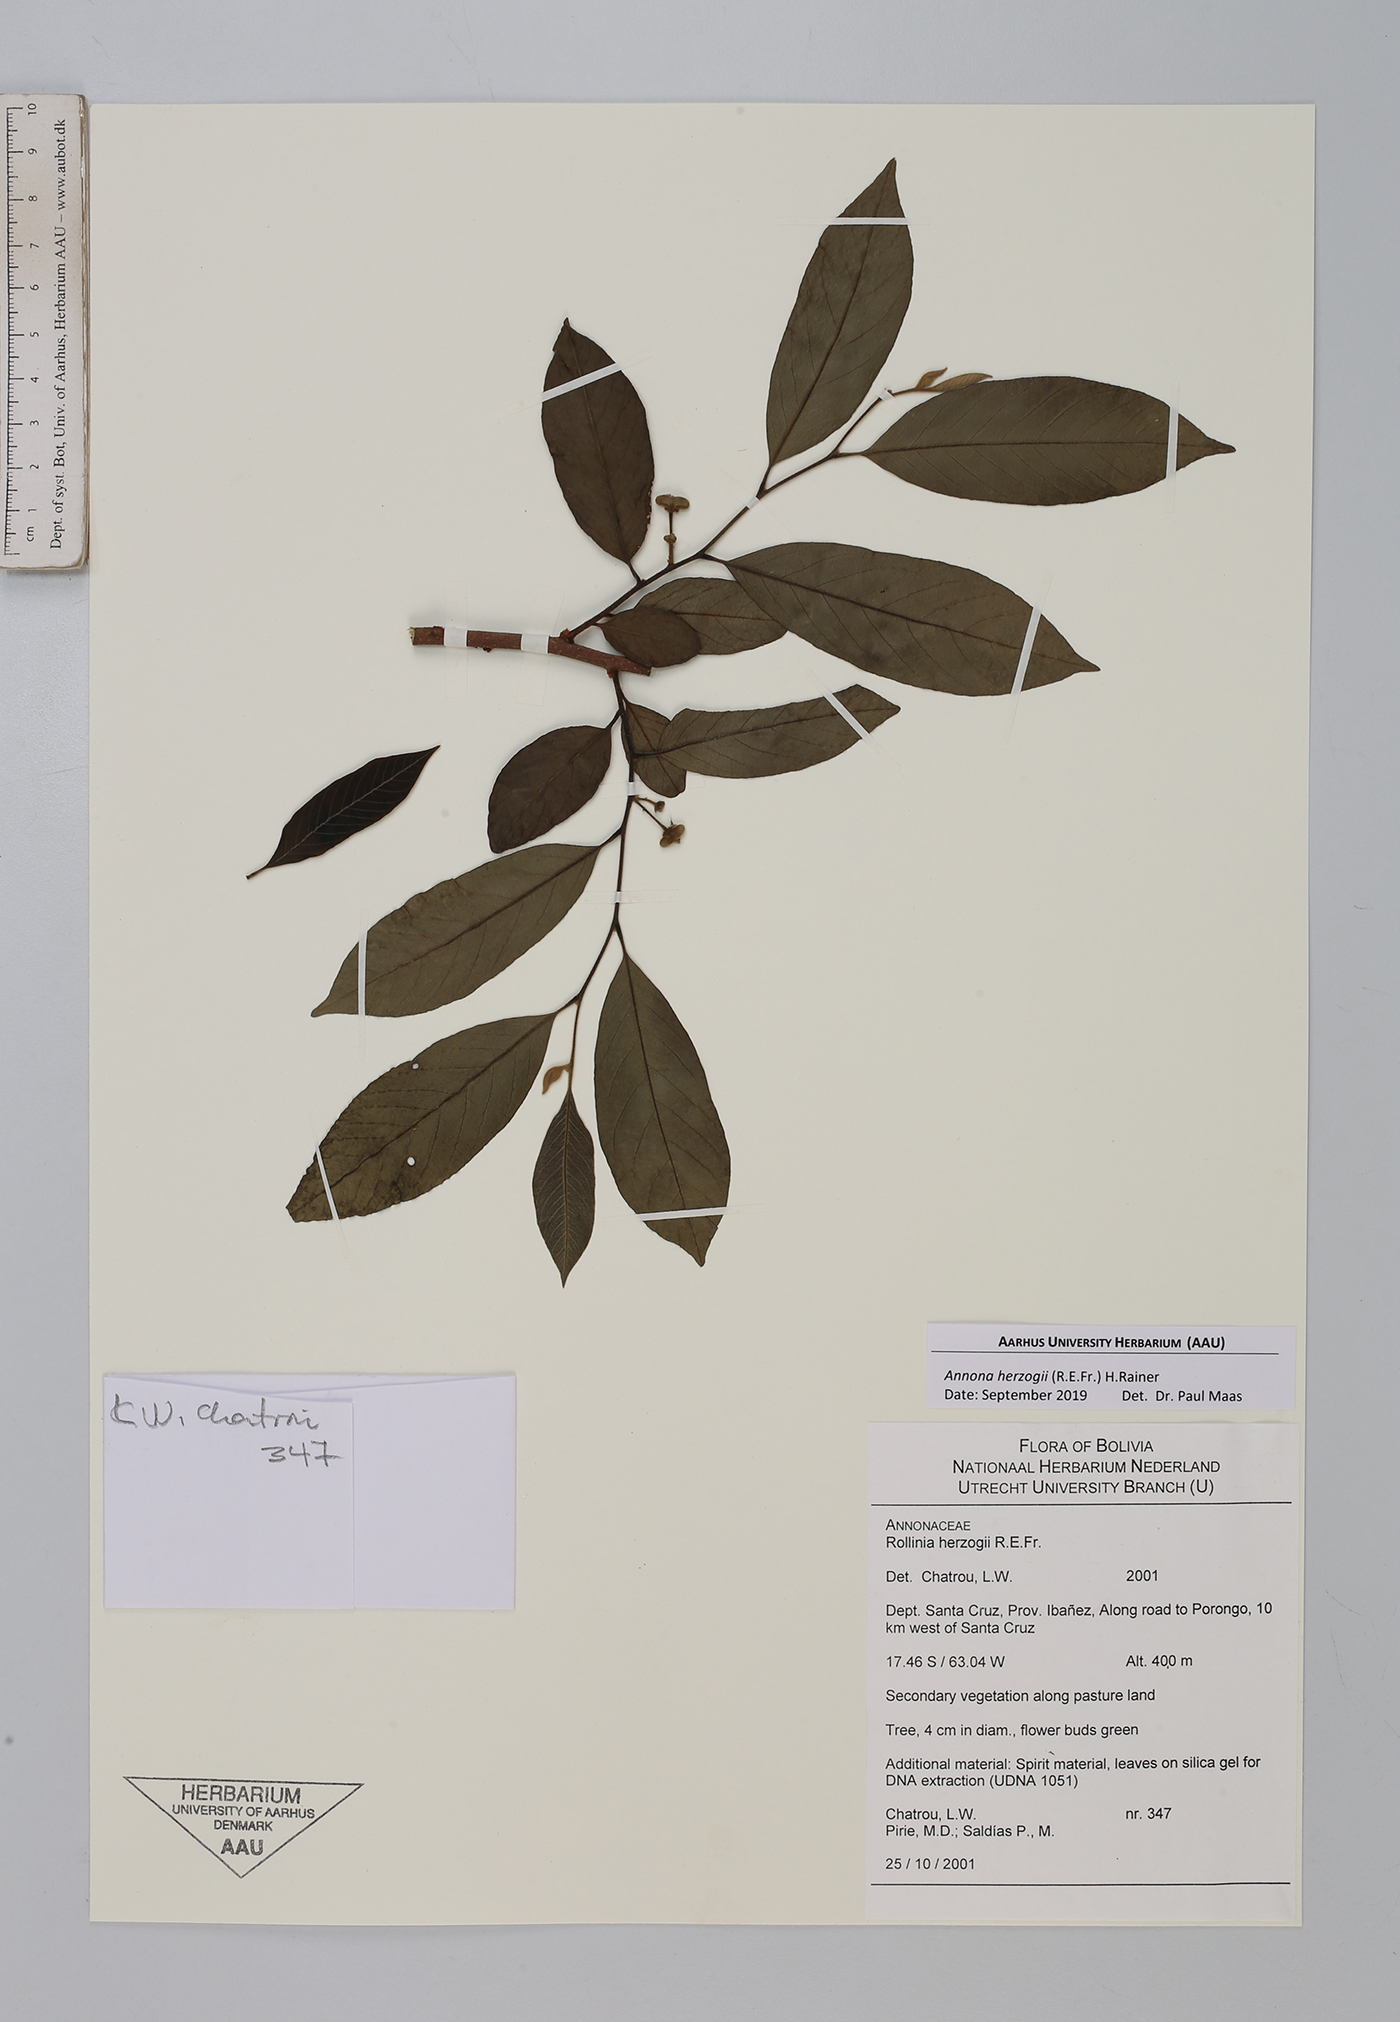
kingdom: Plantae
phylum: Tracheophyta
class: Magnoliopsida
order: Magnoliales
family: Annonaceae
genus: Annona
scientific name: Annona herzogii
